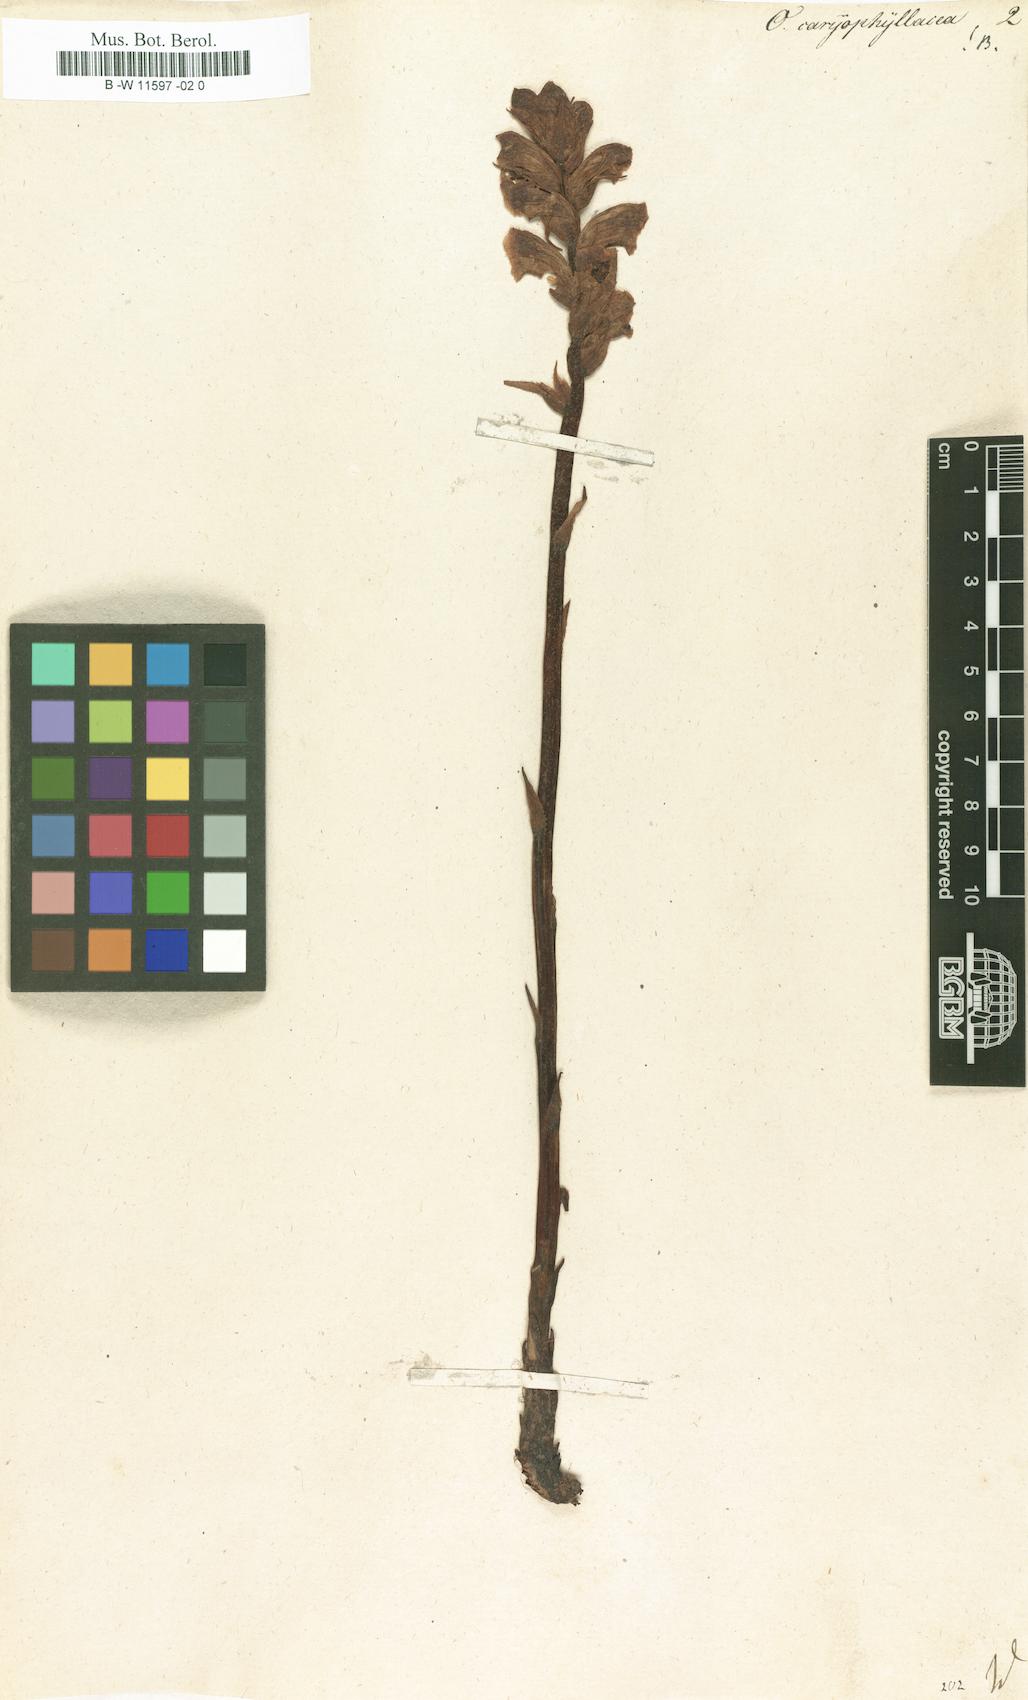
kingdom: Plantae
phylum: Tracheophyta
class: Magnoliopsida
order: Lamiales
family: Orobanchaceae
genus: Orobanche
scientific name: Orobanche caryophyllacea
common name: Bedstraw broomrape
